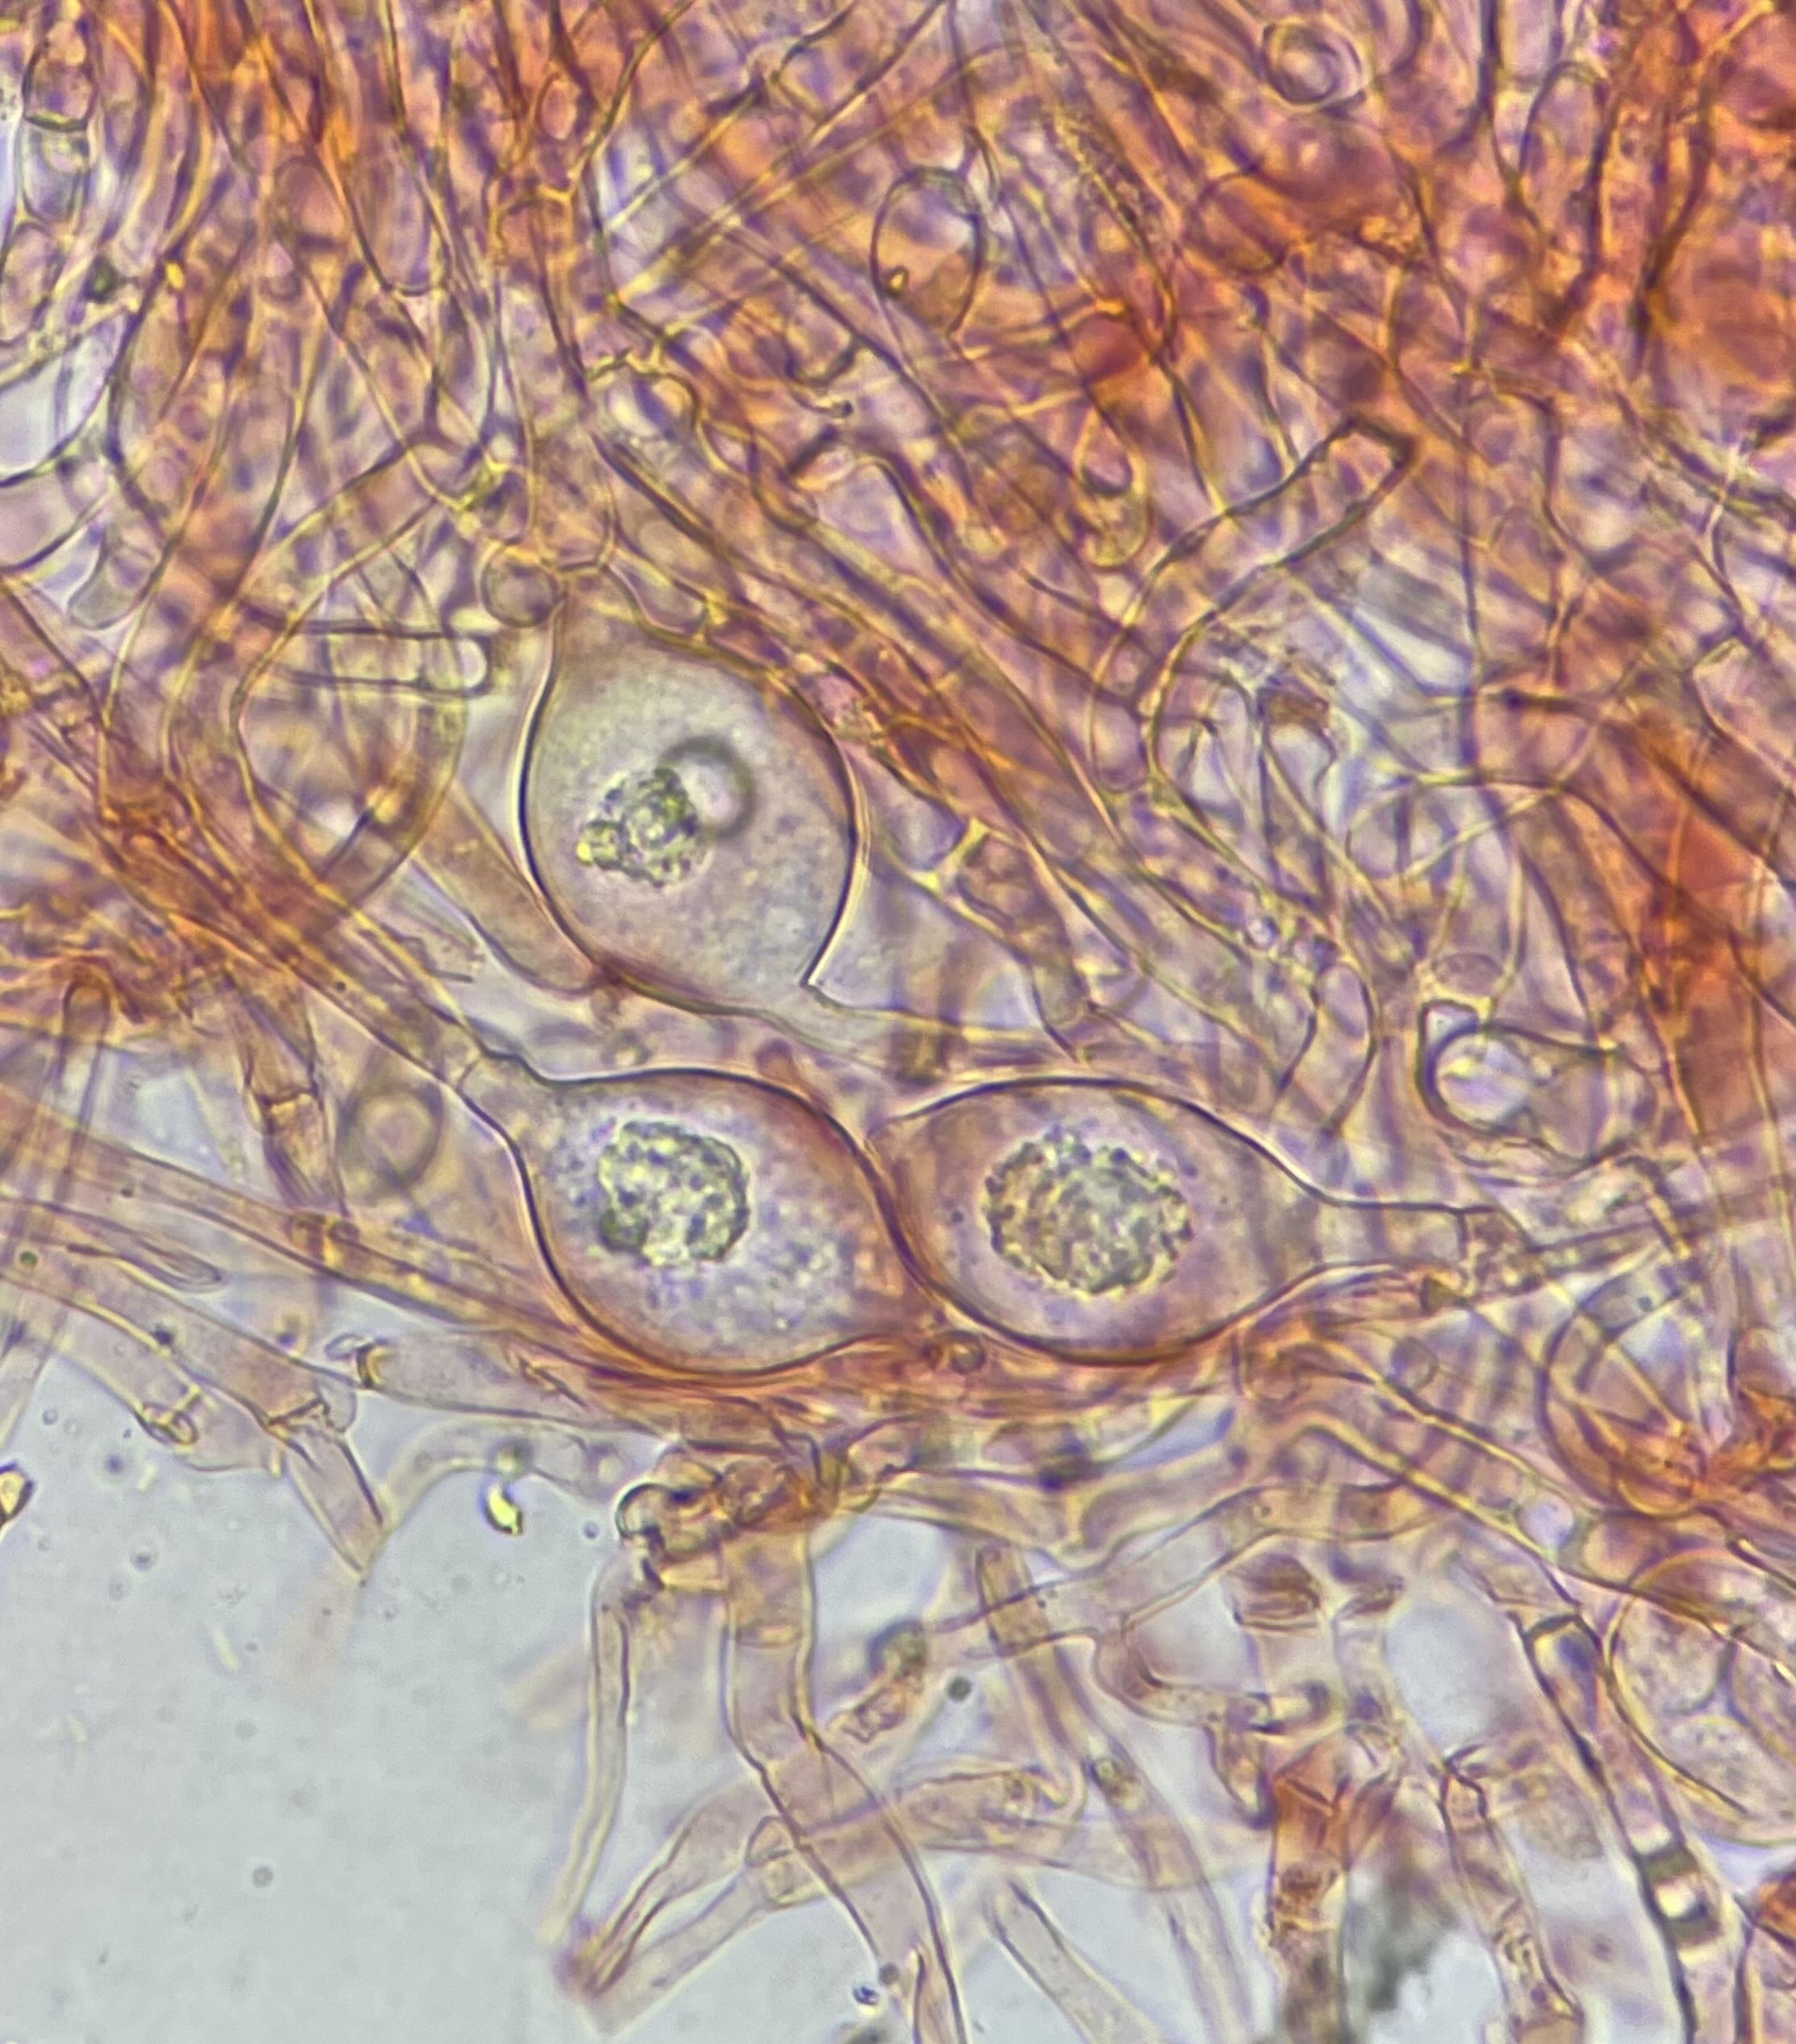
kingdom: Fungi
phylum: Basidiomycota
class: Agaricomycetes
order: Agaricales
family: Tricholomataceae
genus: Clitocybe
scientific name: Clitocybe phaeophthalma
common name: stinkende tragthat
